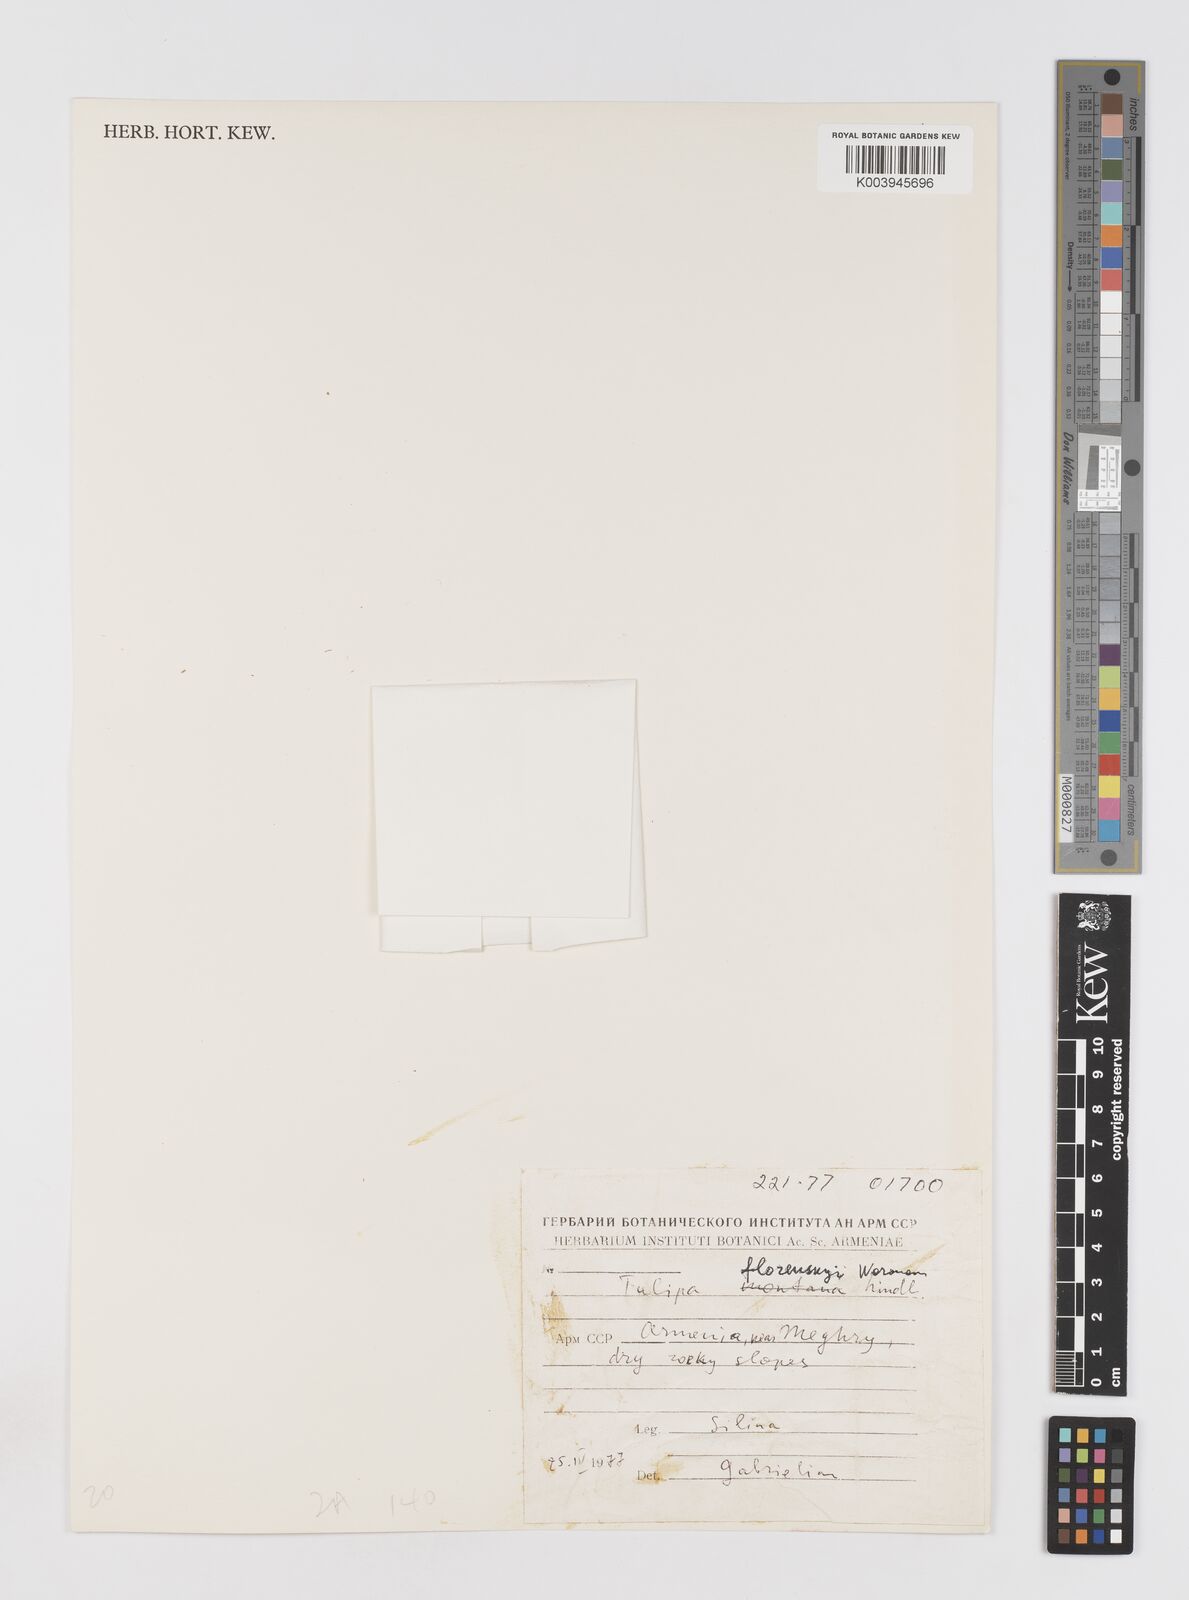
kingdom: Plantae
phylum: Tracheophyta
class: Liliopsida
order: Liliales
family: Liliaceae
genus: Tulipa
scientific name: Tulipa armena
